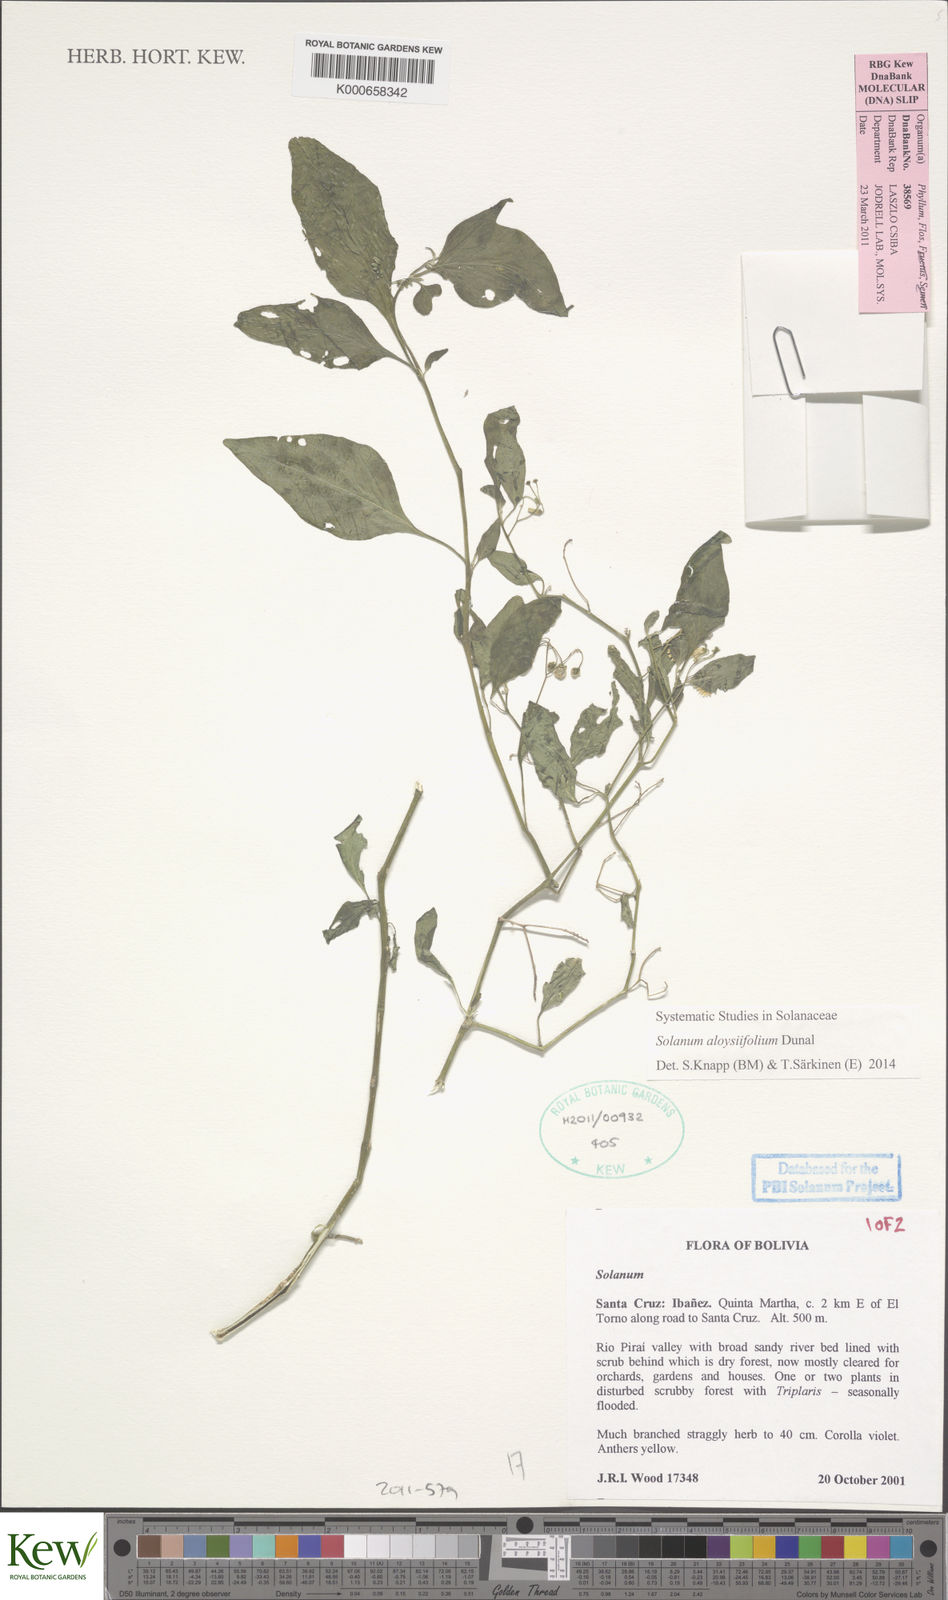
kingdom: Plantae
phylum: Tracheophyta
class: Magnoliopsida
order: Solanales
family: Solanaceae
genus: Solanum
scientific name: Solanum aloysiifolium
